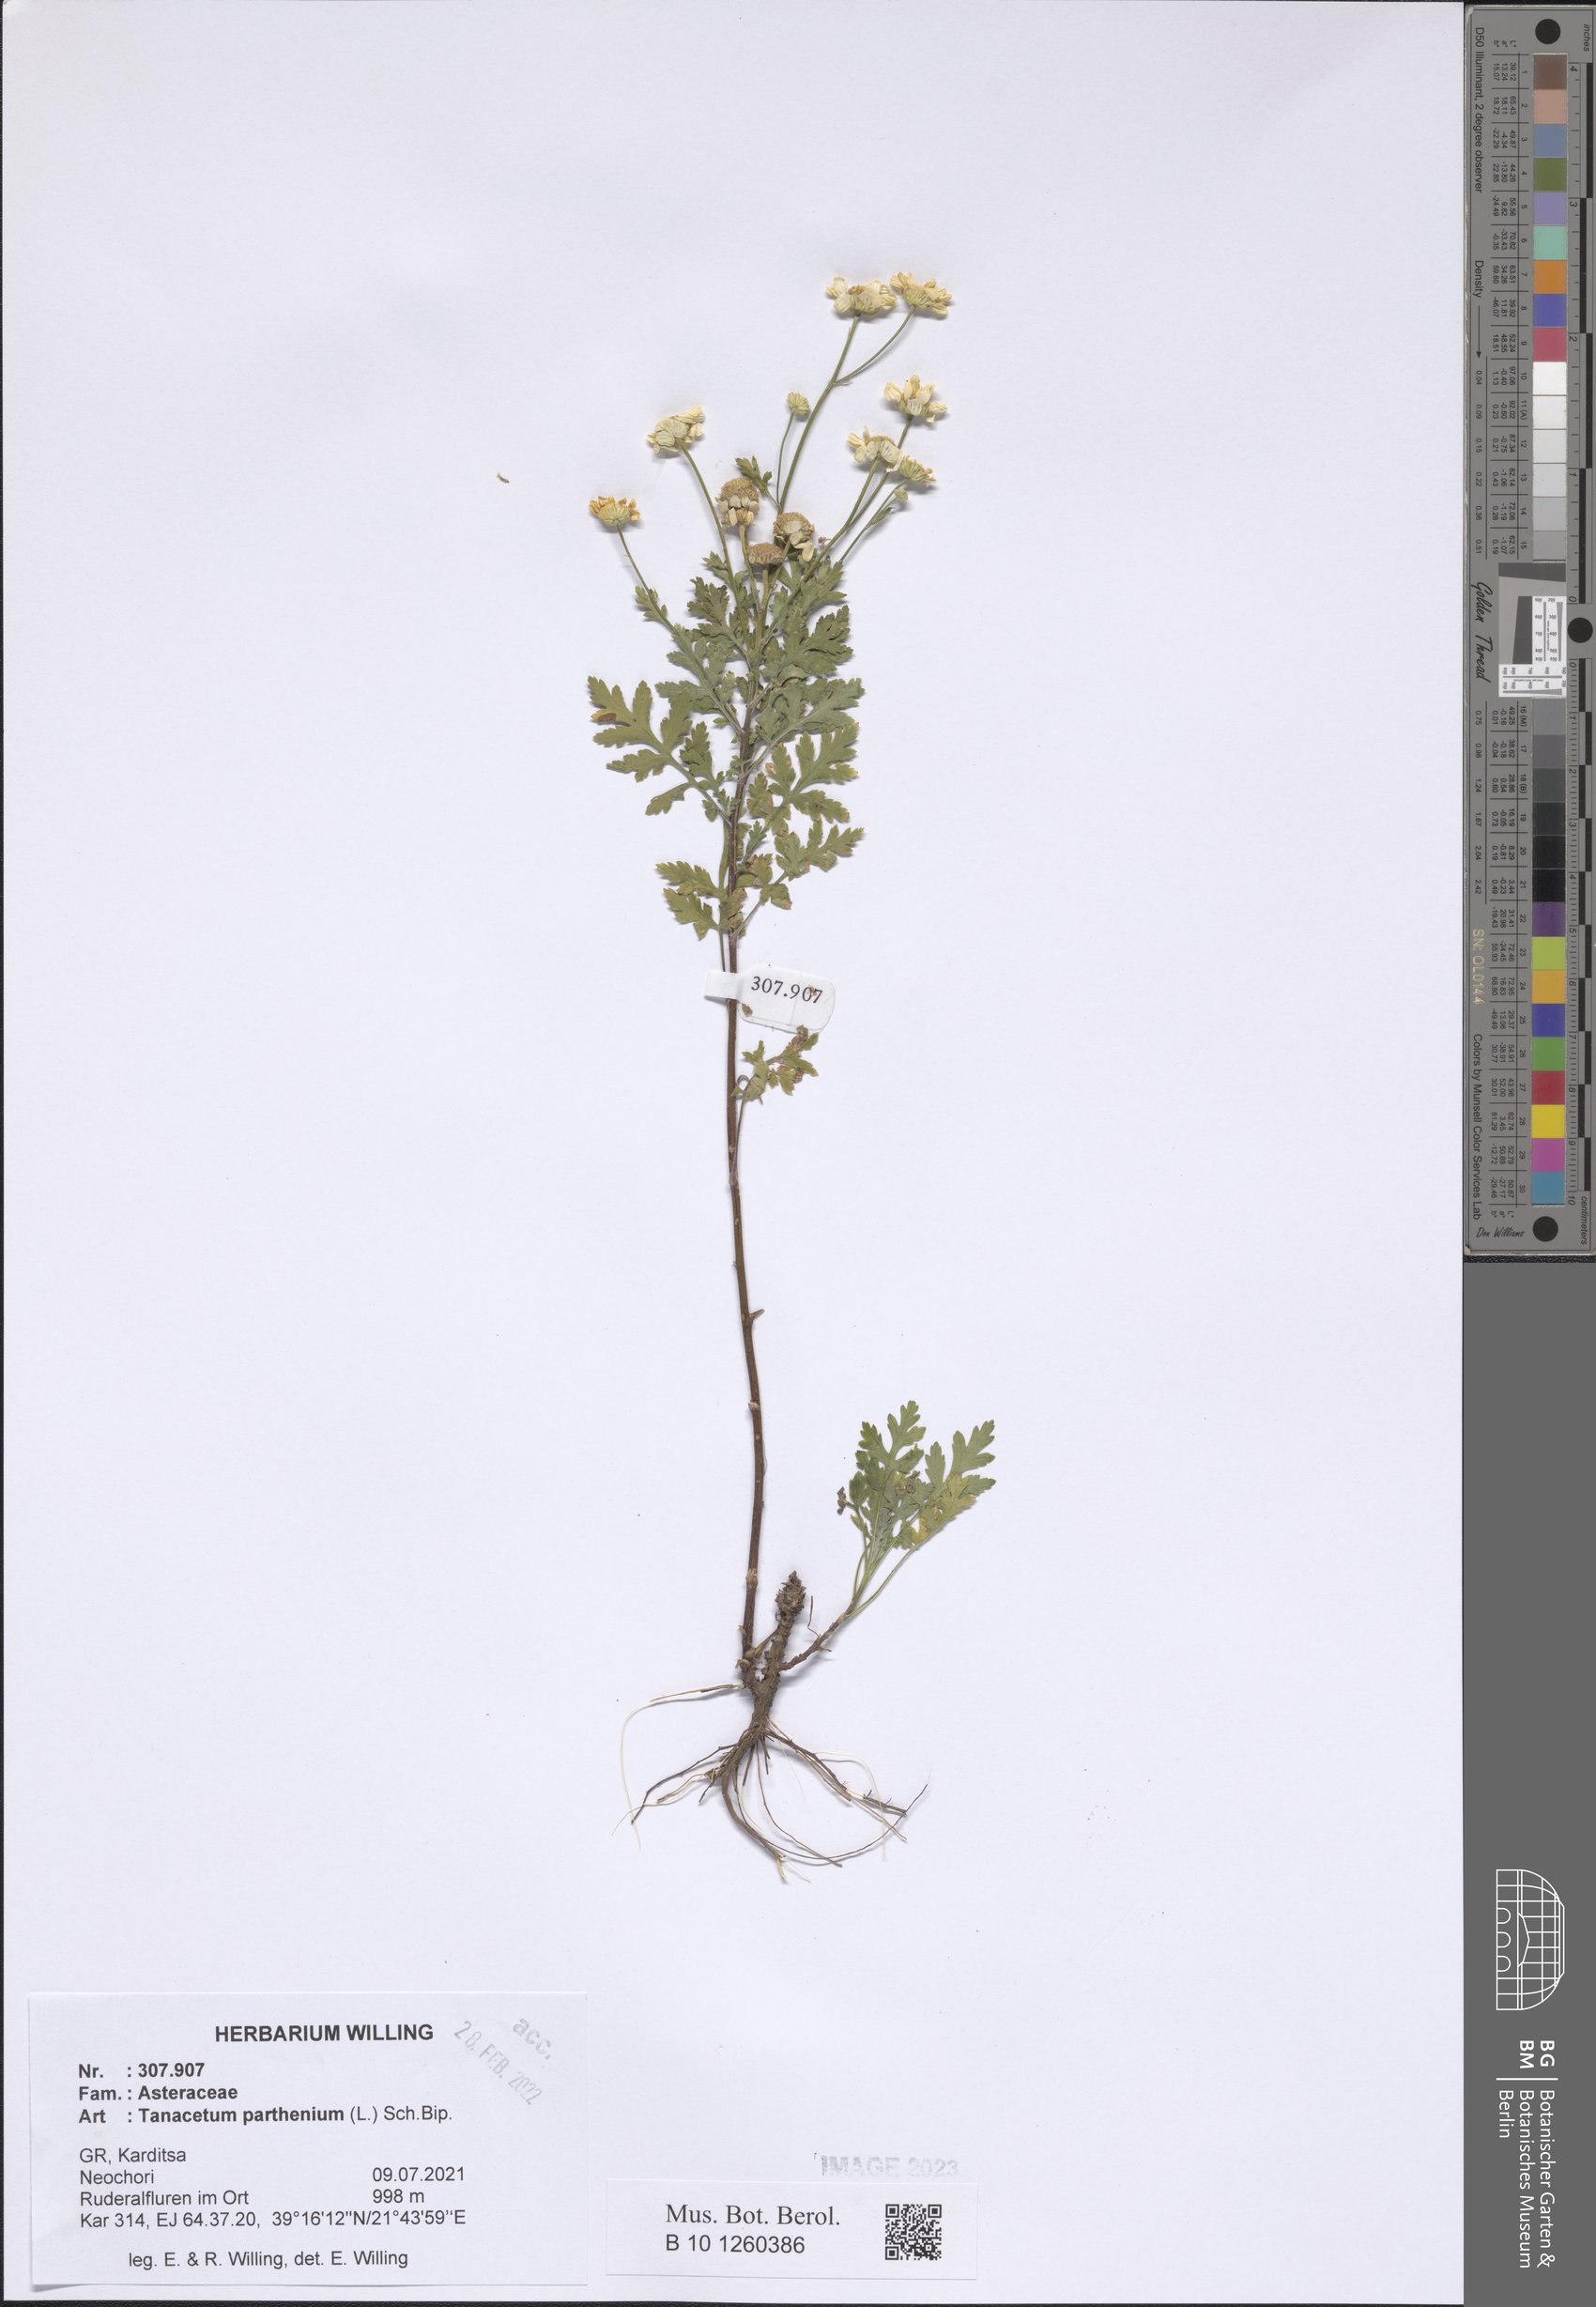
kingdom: Plantae
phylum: Tracheophyta
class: Magnoliopsida
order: Asterales
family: Asteraceae
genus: Tanacetum
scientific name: Tanacetum parthenium
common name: Feverfew
